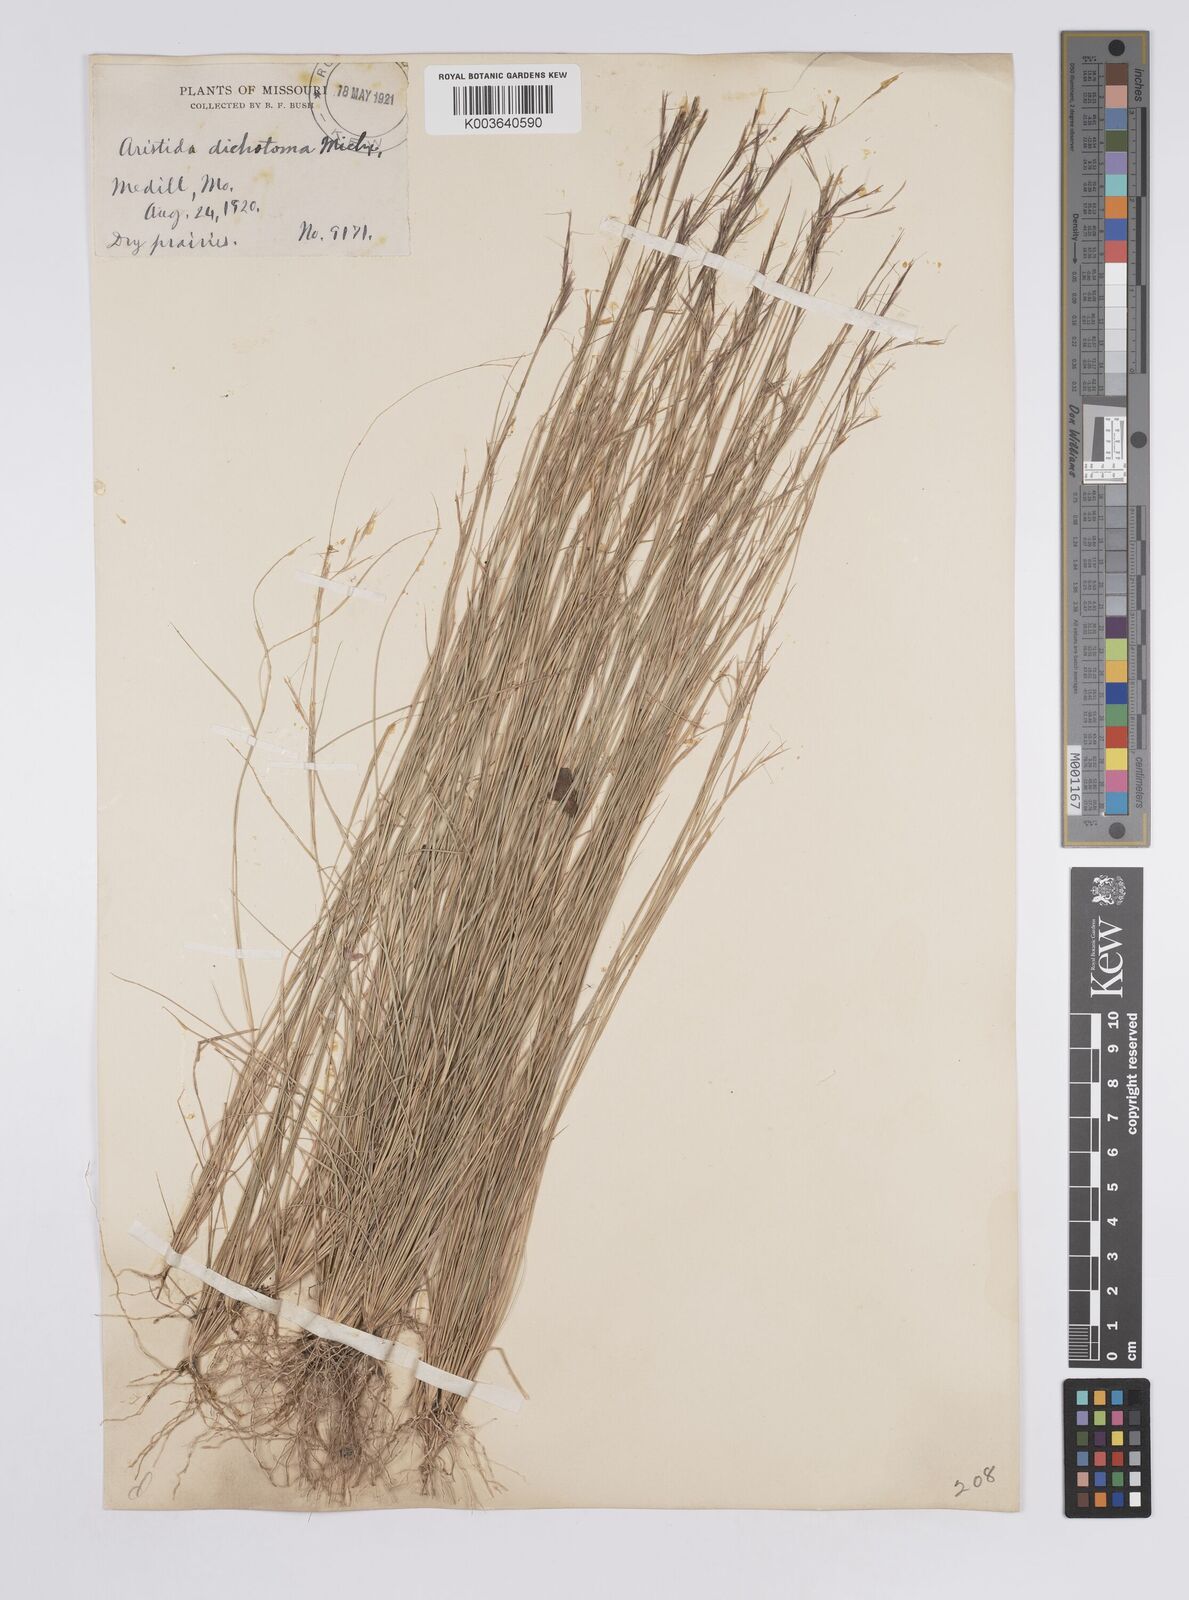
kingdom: Plantae
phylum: Tracheophyta
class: Liliopsida
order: Poales
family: Poaceae
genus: Aristida
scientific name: Aristida dichotoma
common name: Churchmouse three-awn
